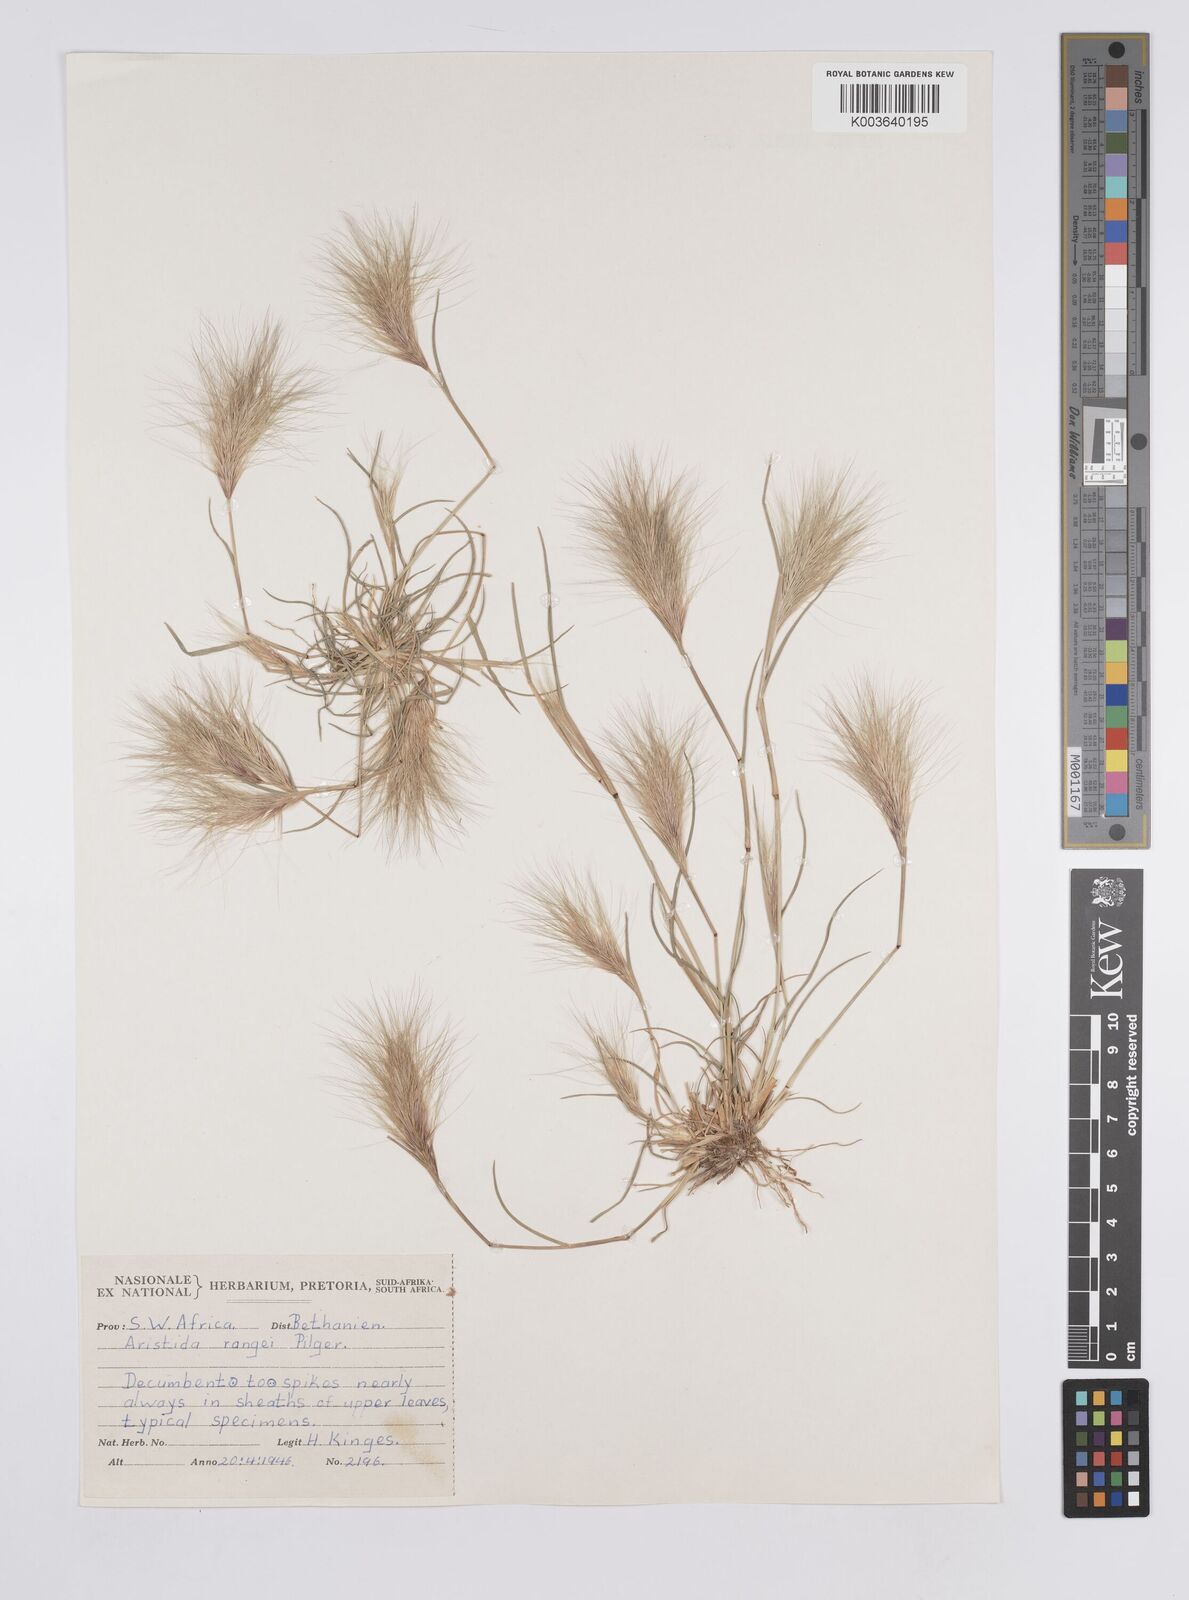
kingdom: Plantae
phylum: Tracheophyta
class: Liliopsida
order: Poales
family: Poaceae
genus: Aristida
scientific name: Aristida congesta
